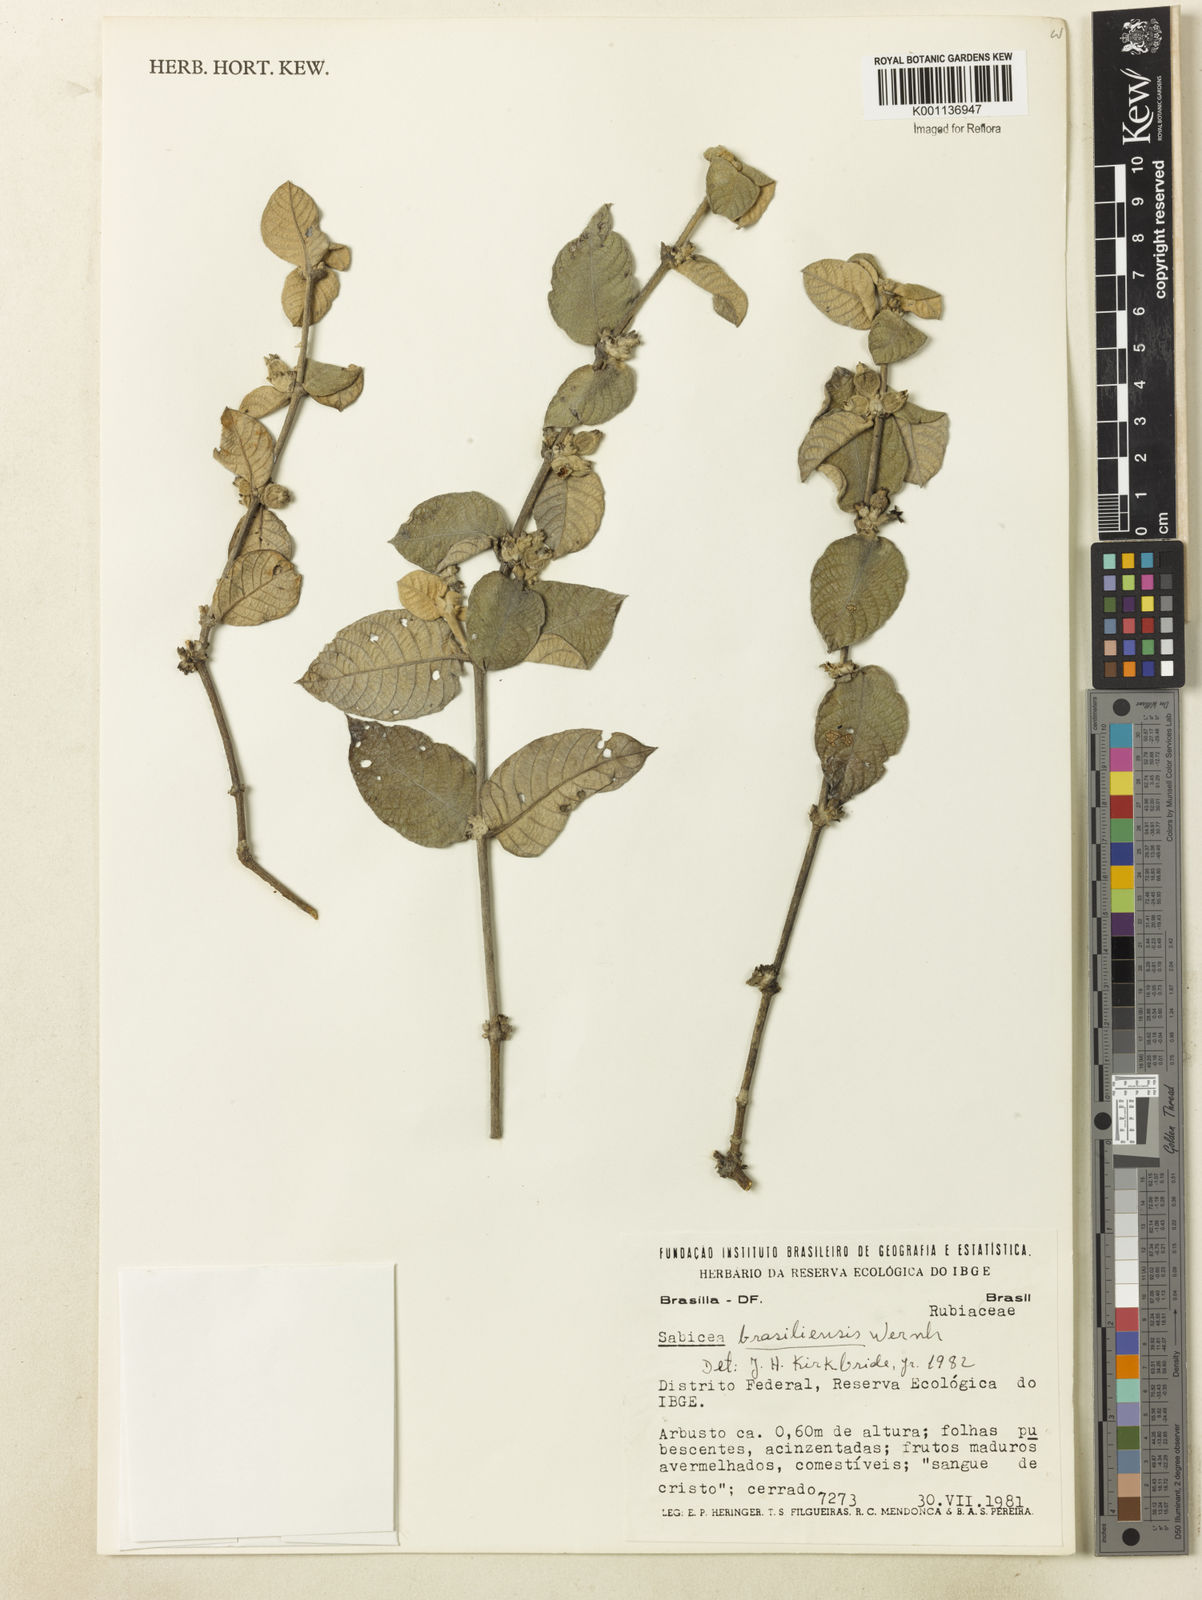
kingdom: Plantae
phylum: Tracheophyta
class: Magnoliopsida
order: Gentianales
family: Rubiaceae
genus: Sabicea
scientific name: Sabicea brasiliensis
